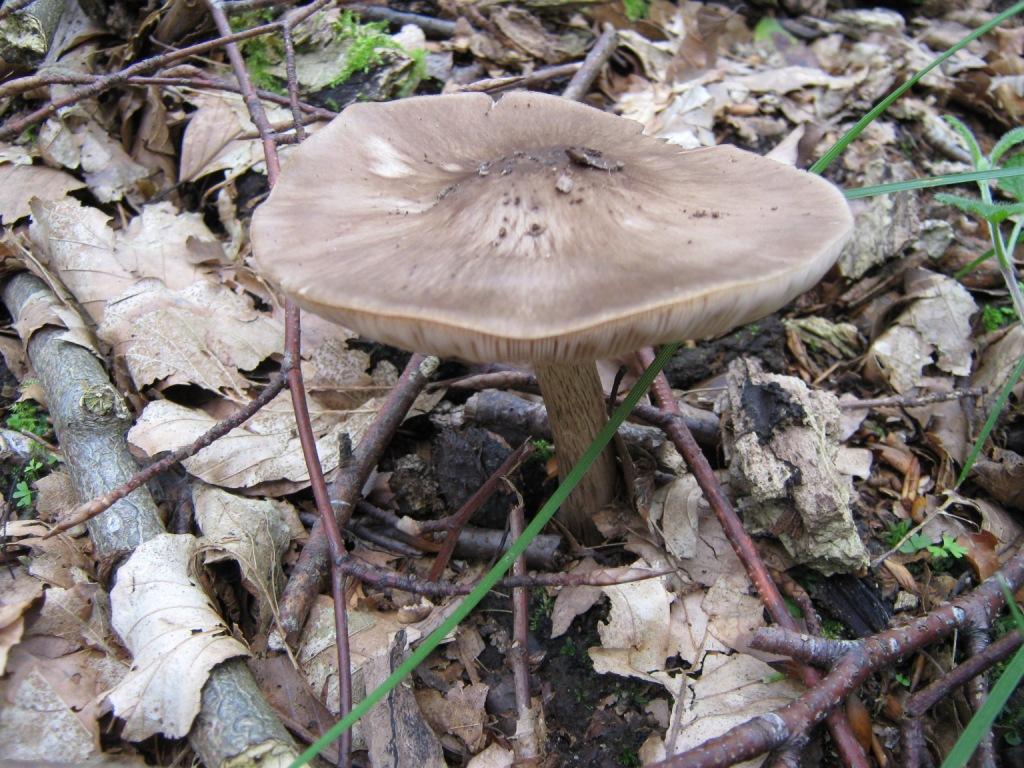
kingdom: Fungi
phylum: Basidiomycota
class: Agaricomycetes
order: Agaricales
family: Pluteaceae
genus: Pluteus
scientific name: Pluteus cervinus
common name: sodfarvet skærmhat
